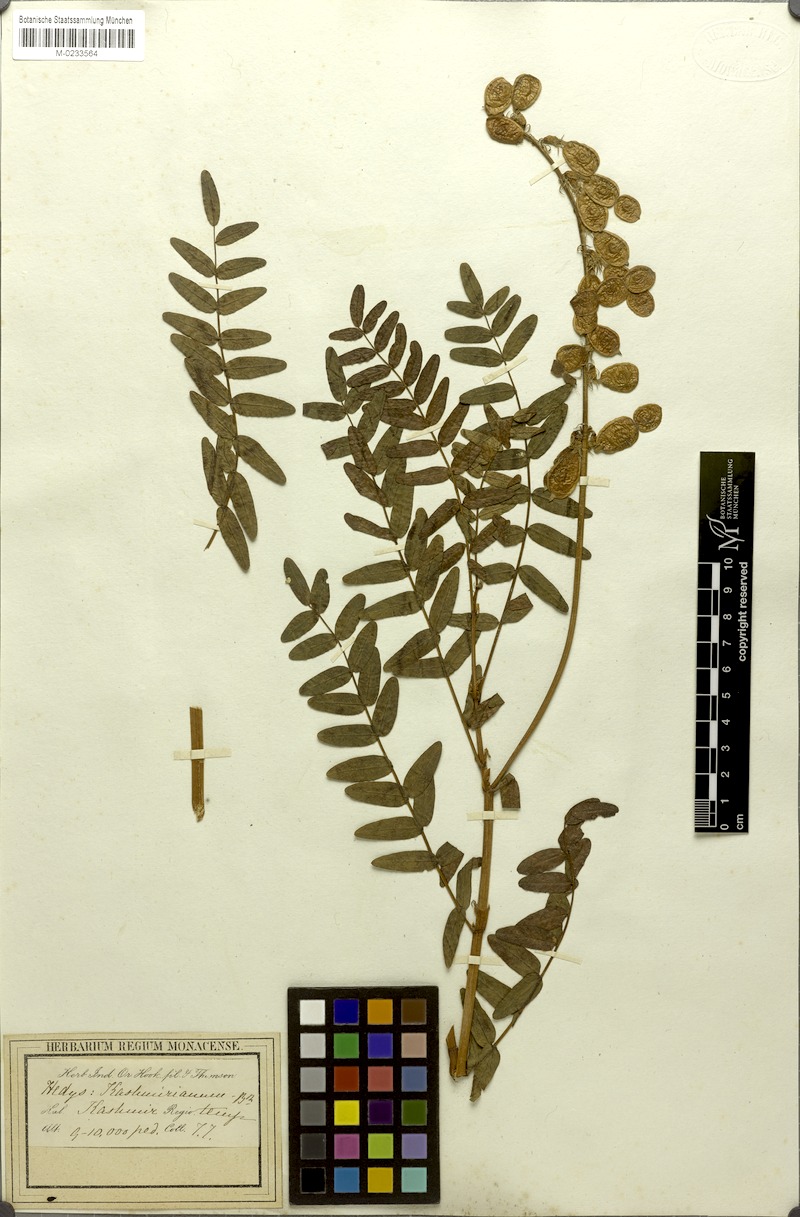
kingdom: Plantae
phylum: Tracheophyta
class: Magnoliopsida
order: Fabales
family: Fabaceae
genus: Hedysarum
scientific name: Hedysarum cachemirianum
